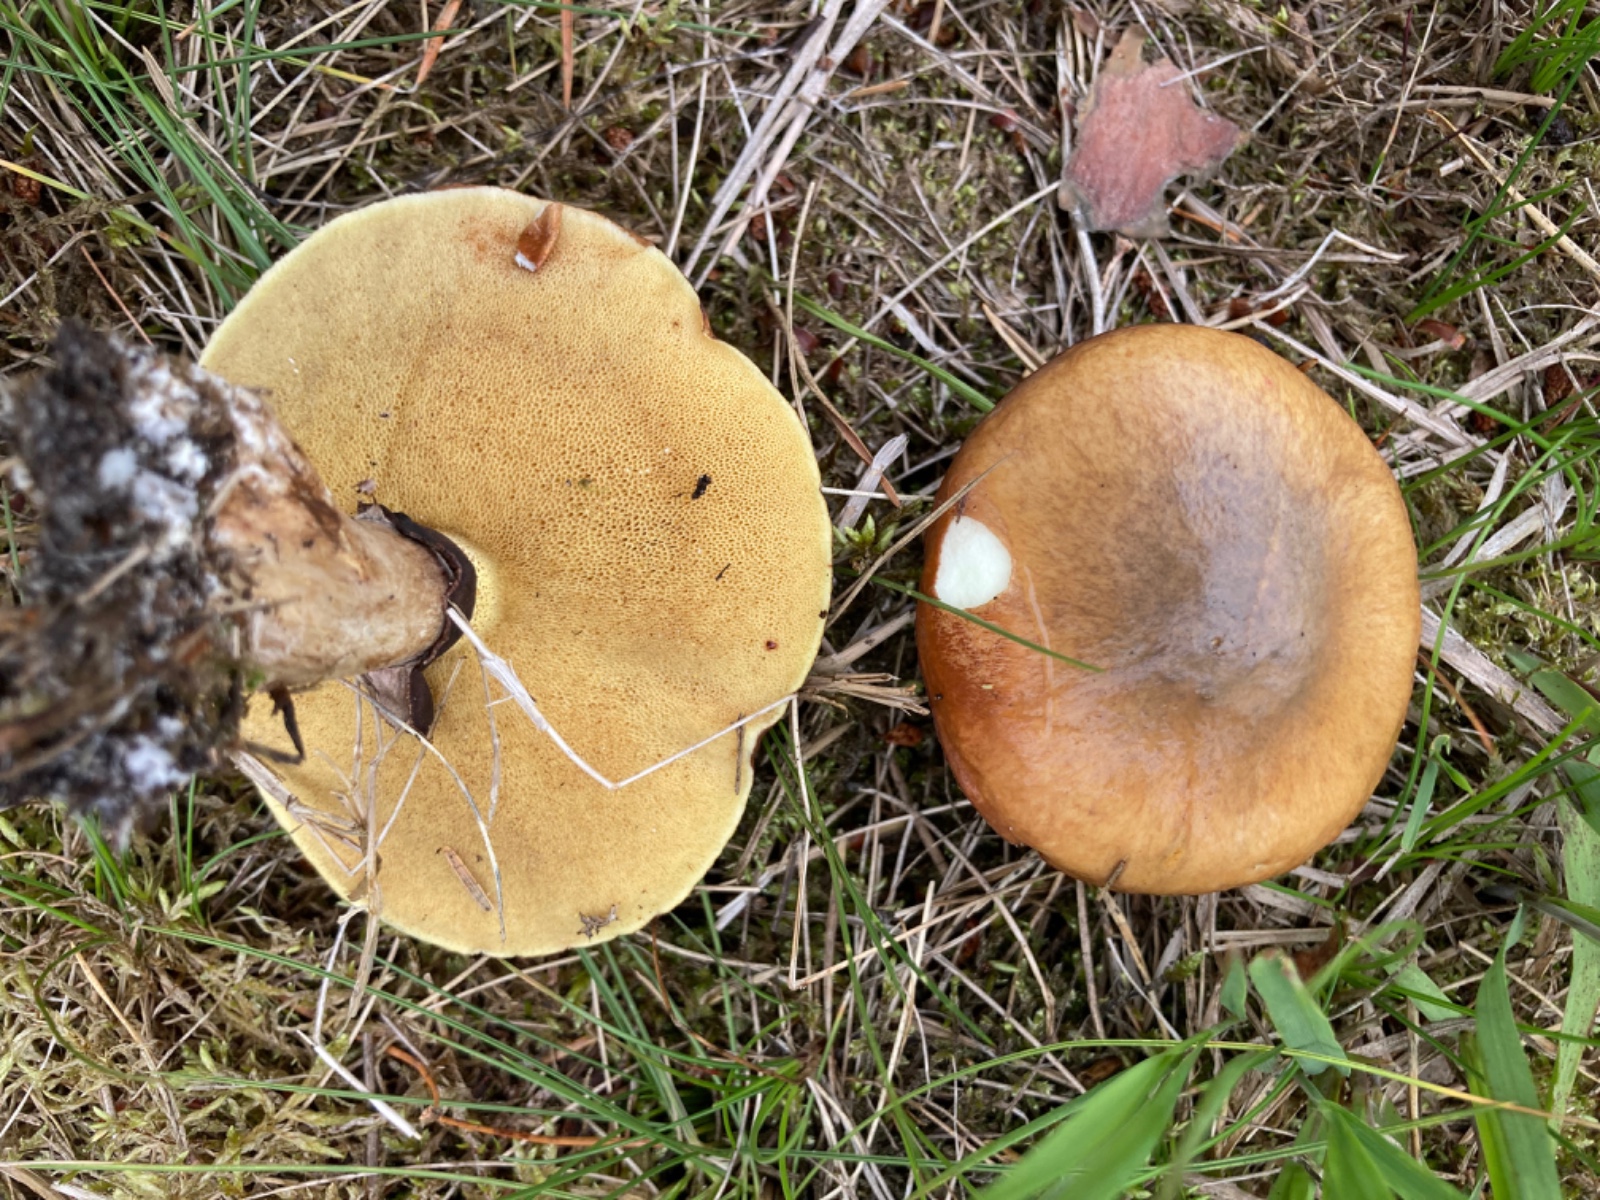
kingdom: Fungi
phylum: Basidiomycota
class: Agaricomycetes
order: Boletales
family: Suillaceae
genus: Suillus
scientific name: Suillus luteus
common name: brungul slimrørhat
